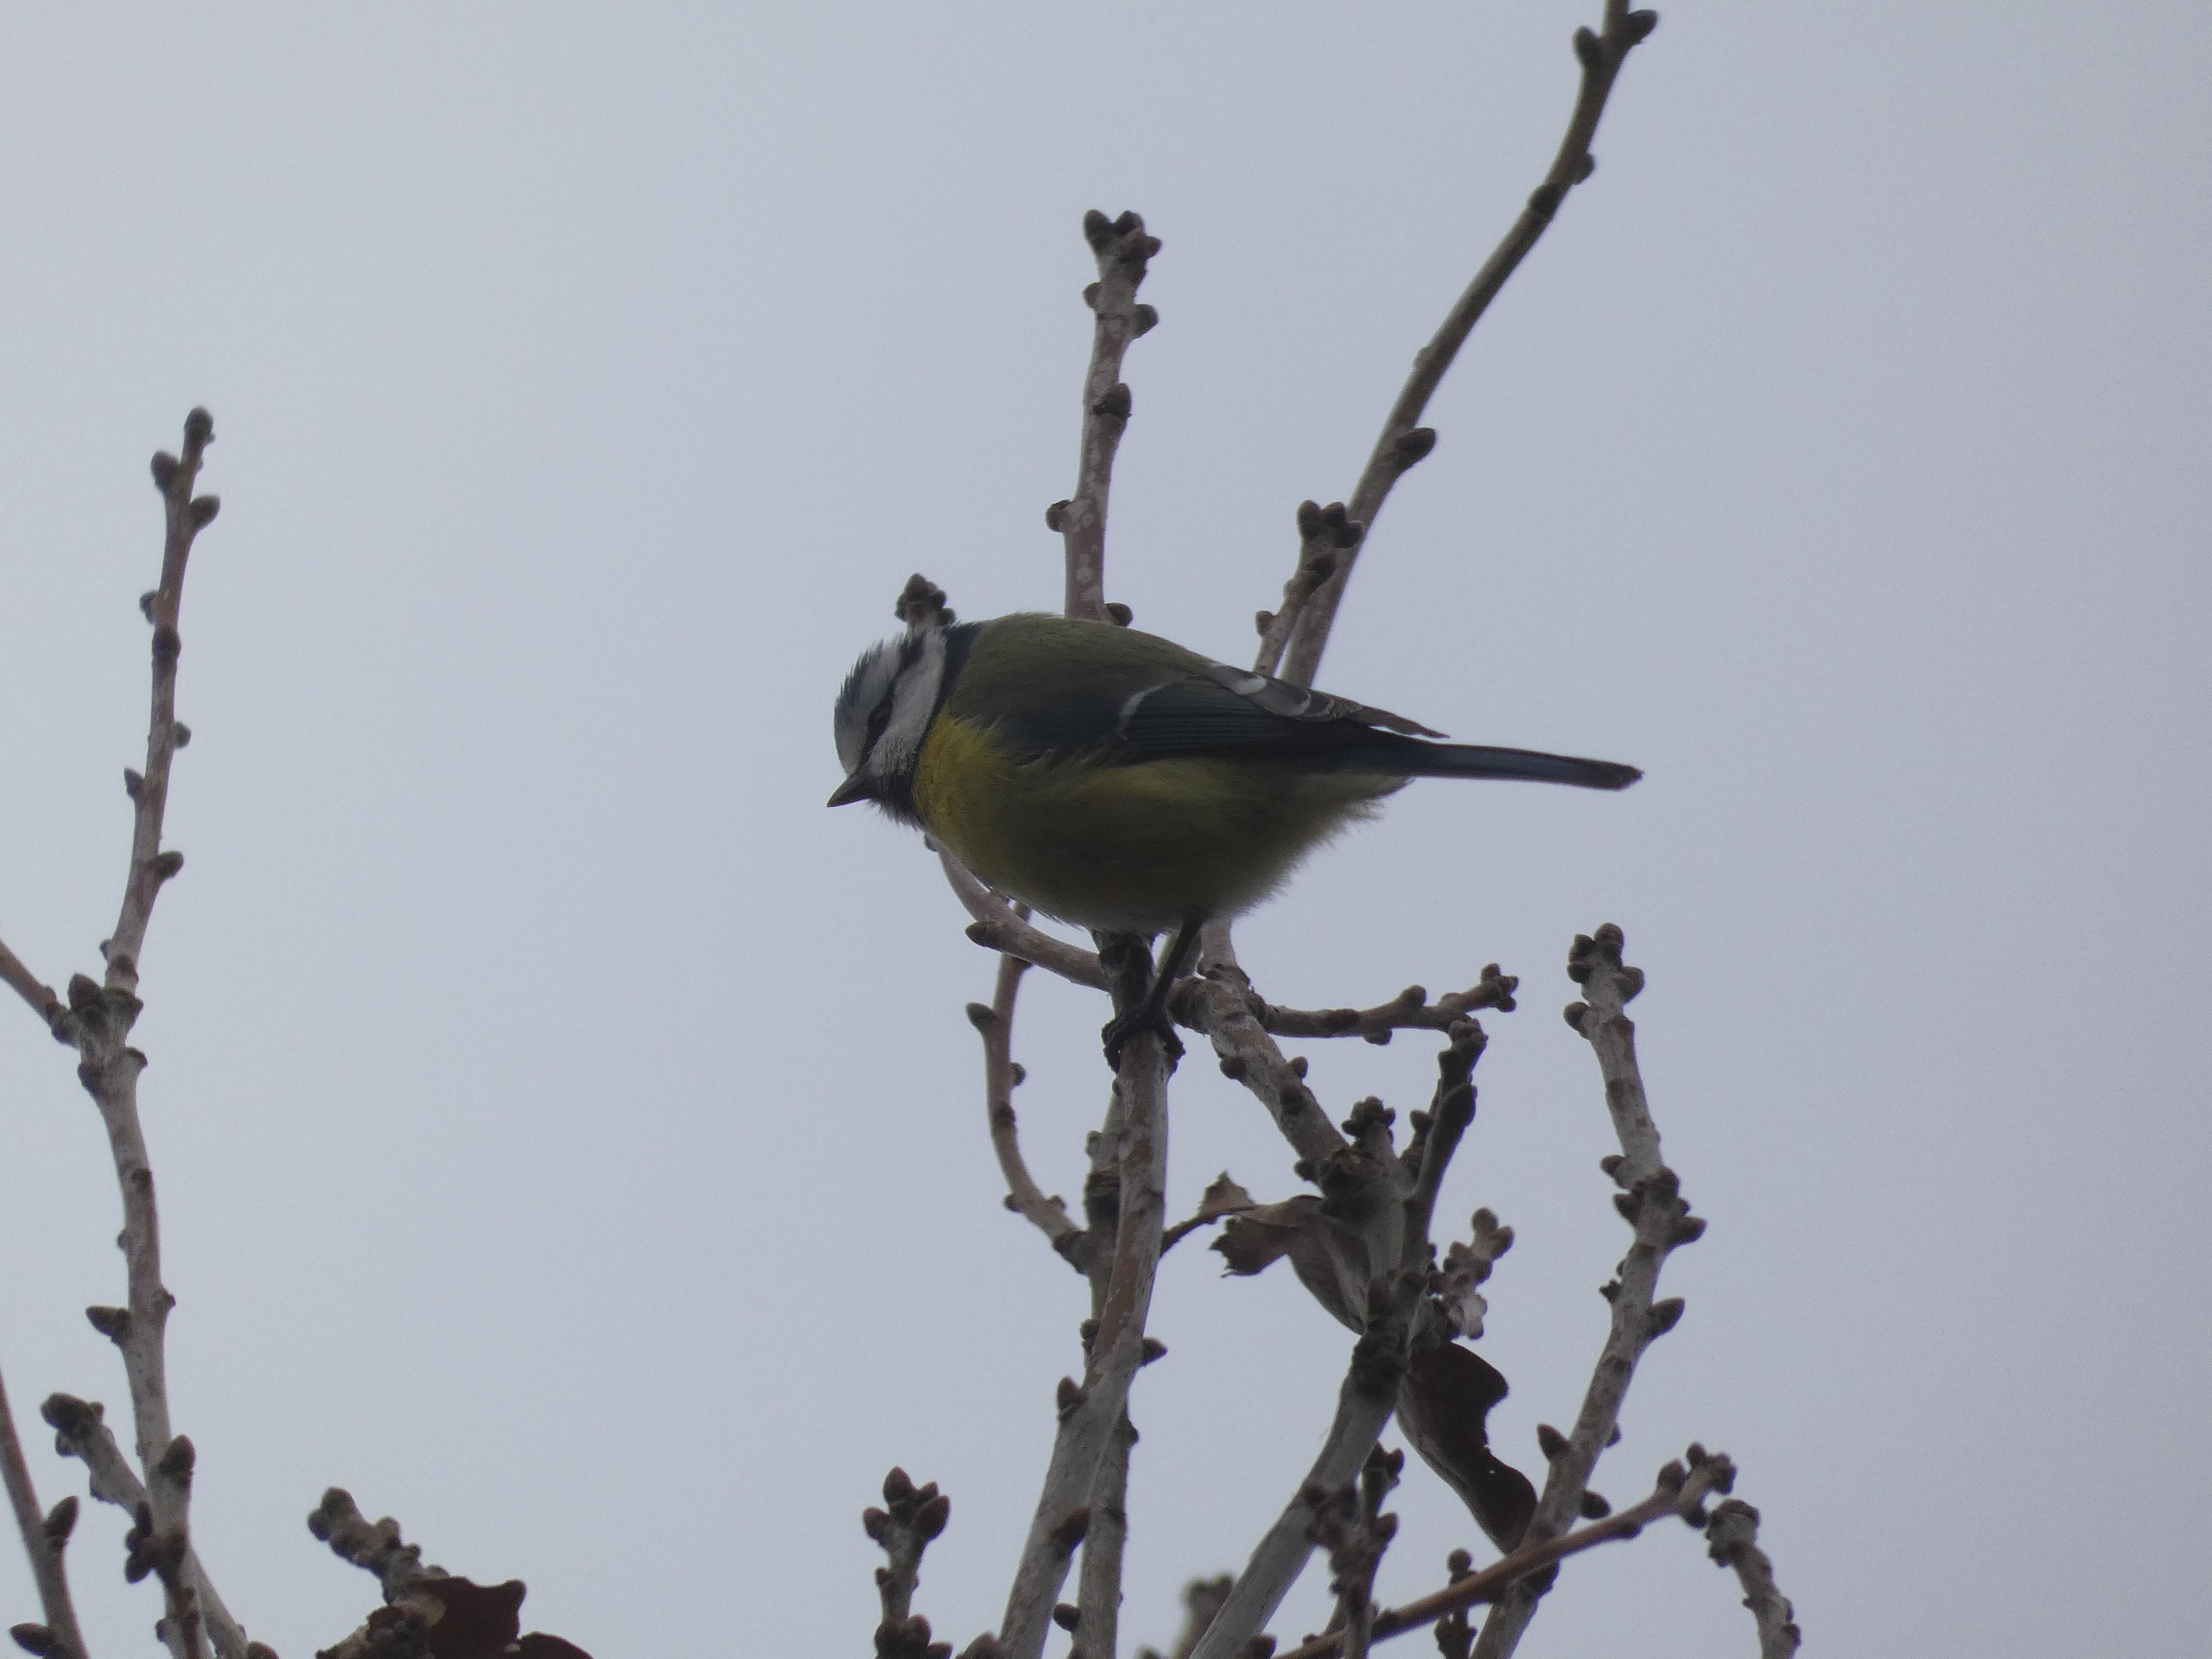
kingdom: Animalia
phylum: Chordata
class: Aves
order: Passeriformes
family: Paridae
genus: Cyanistes
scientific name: Cyanistes caeruleus
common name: Blåmejse
